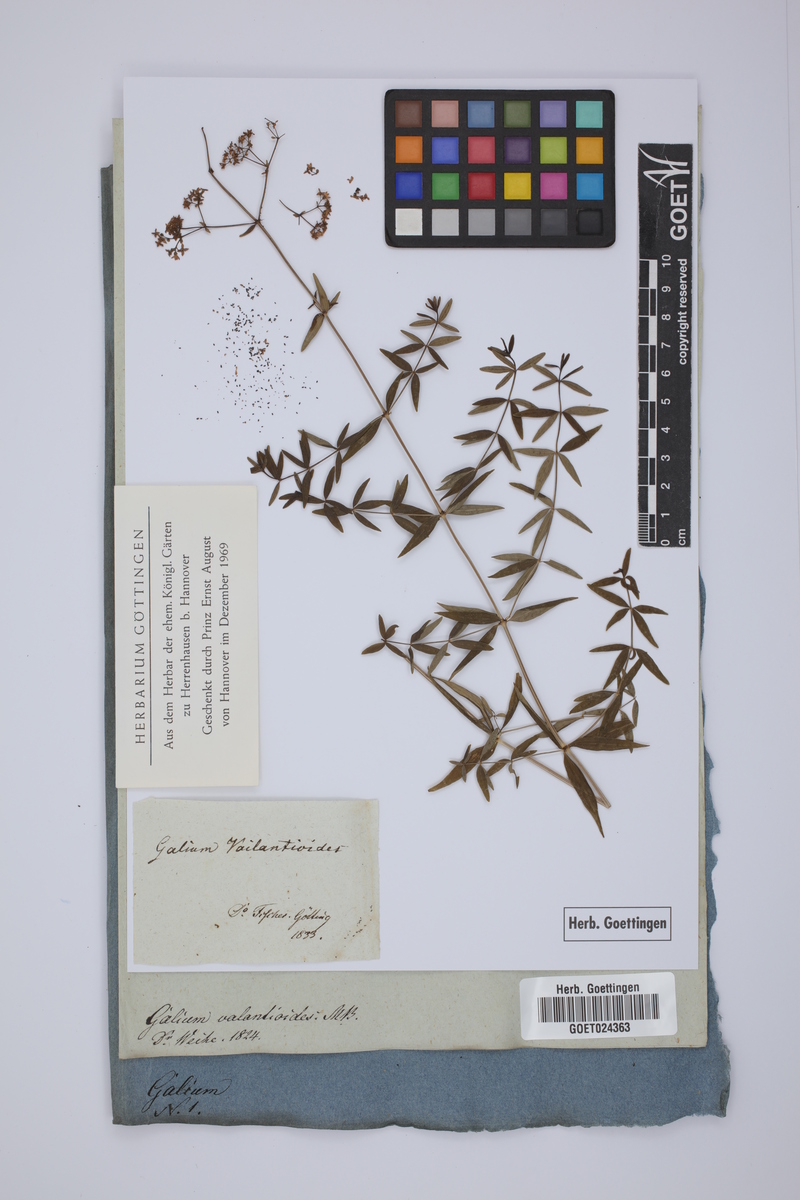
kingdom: Plantae
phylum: Tracheophyta
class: Magnoliopsida
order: Gentianales
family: Rubiaceae
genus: Galium
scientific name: Galium valantioides
